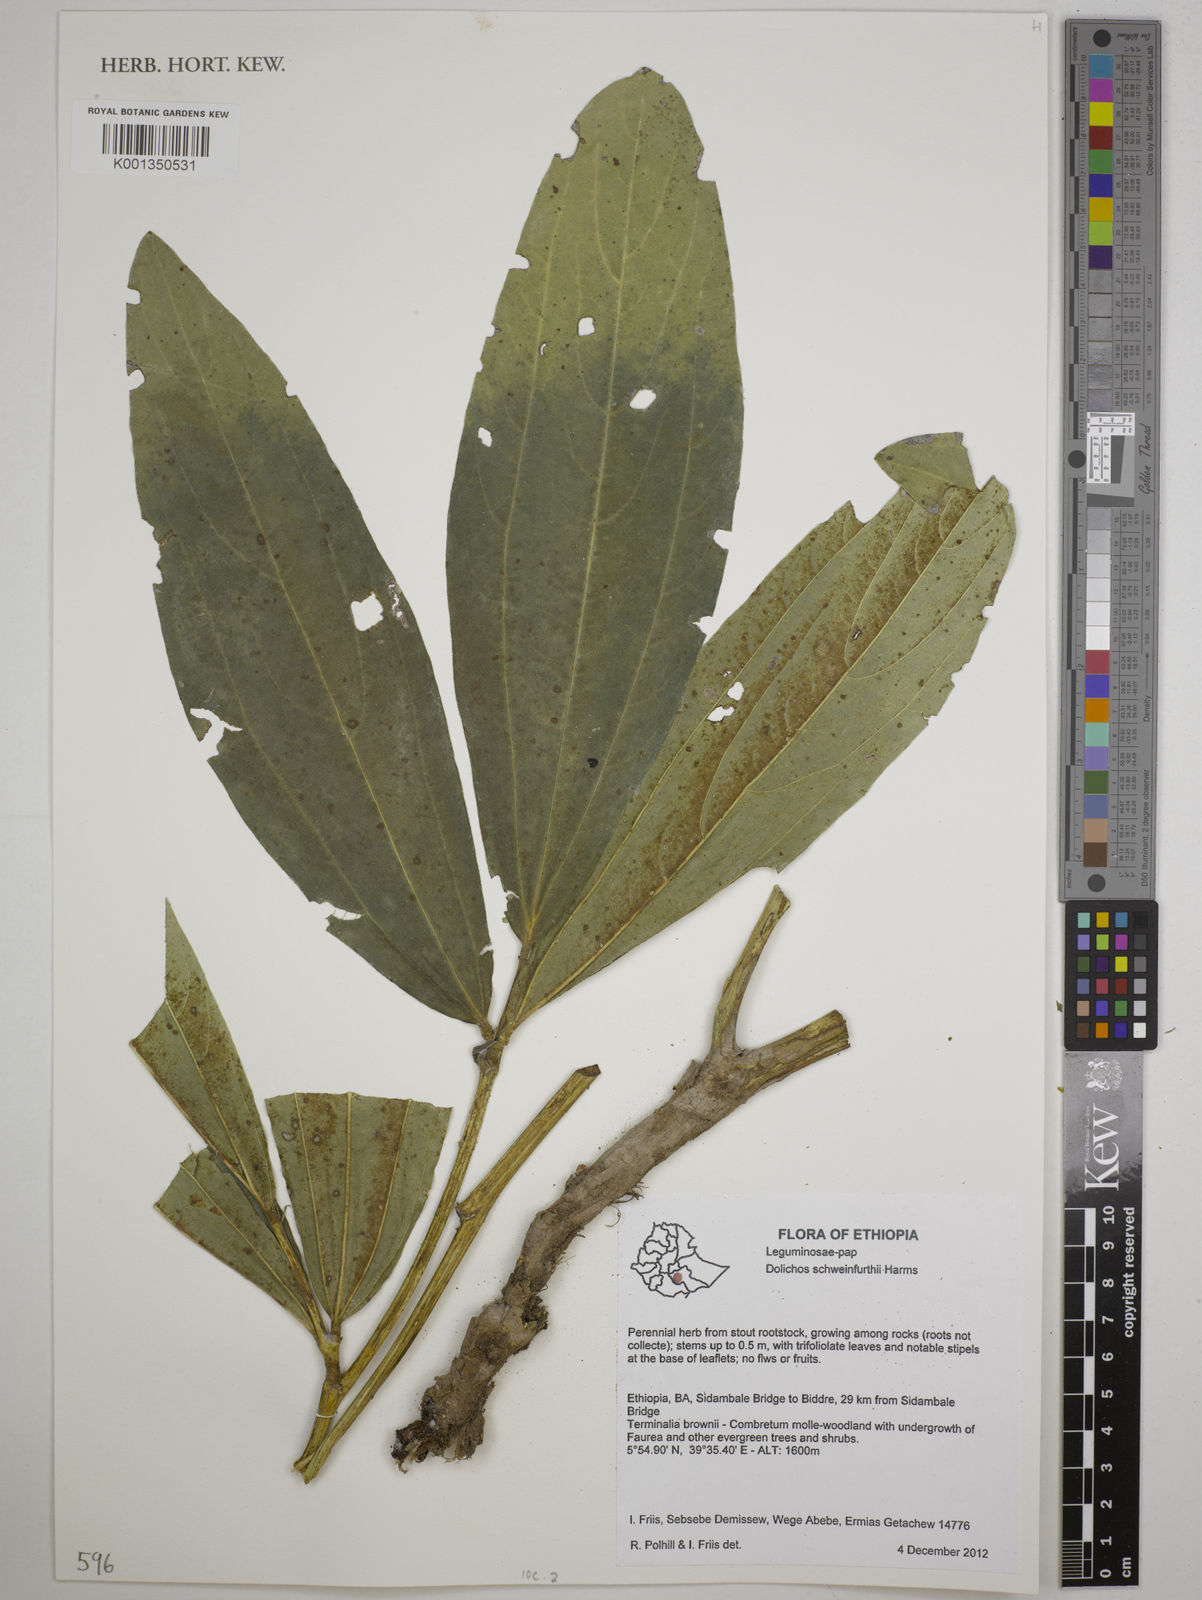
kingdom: Plantae
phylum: Tracheophyta
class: Magnoliopsida
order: Fabales
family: Fabaceae
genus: Dolichos
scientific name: Dolichos schweinfurthii
